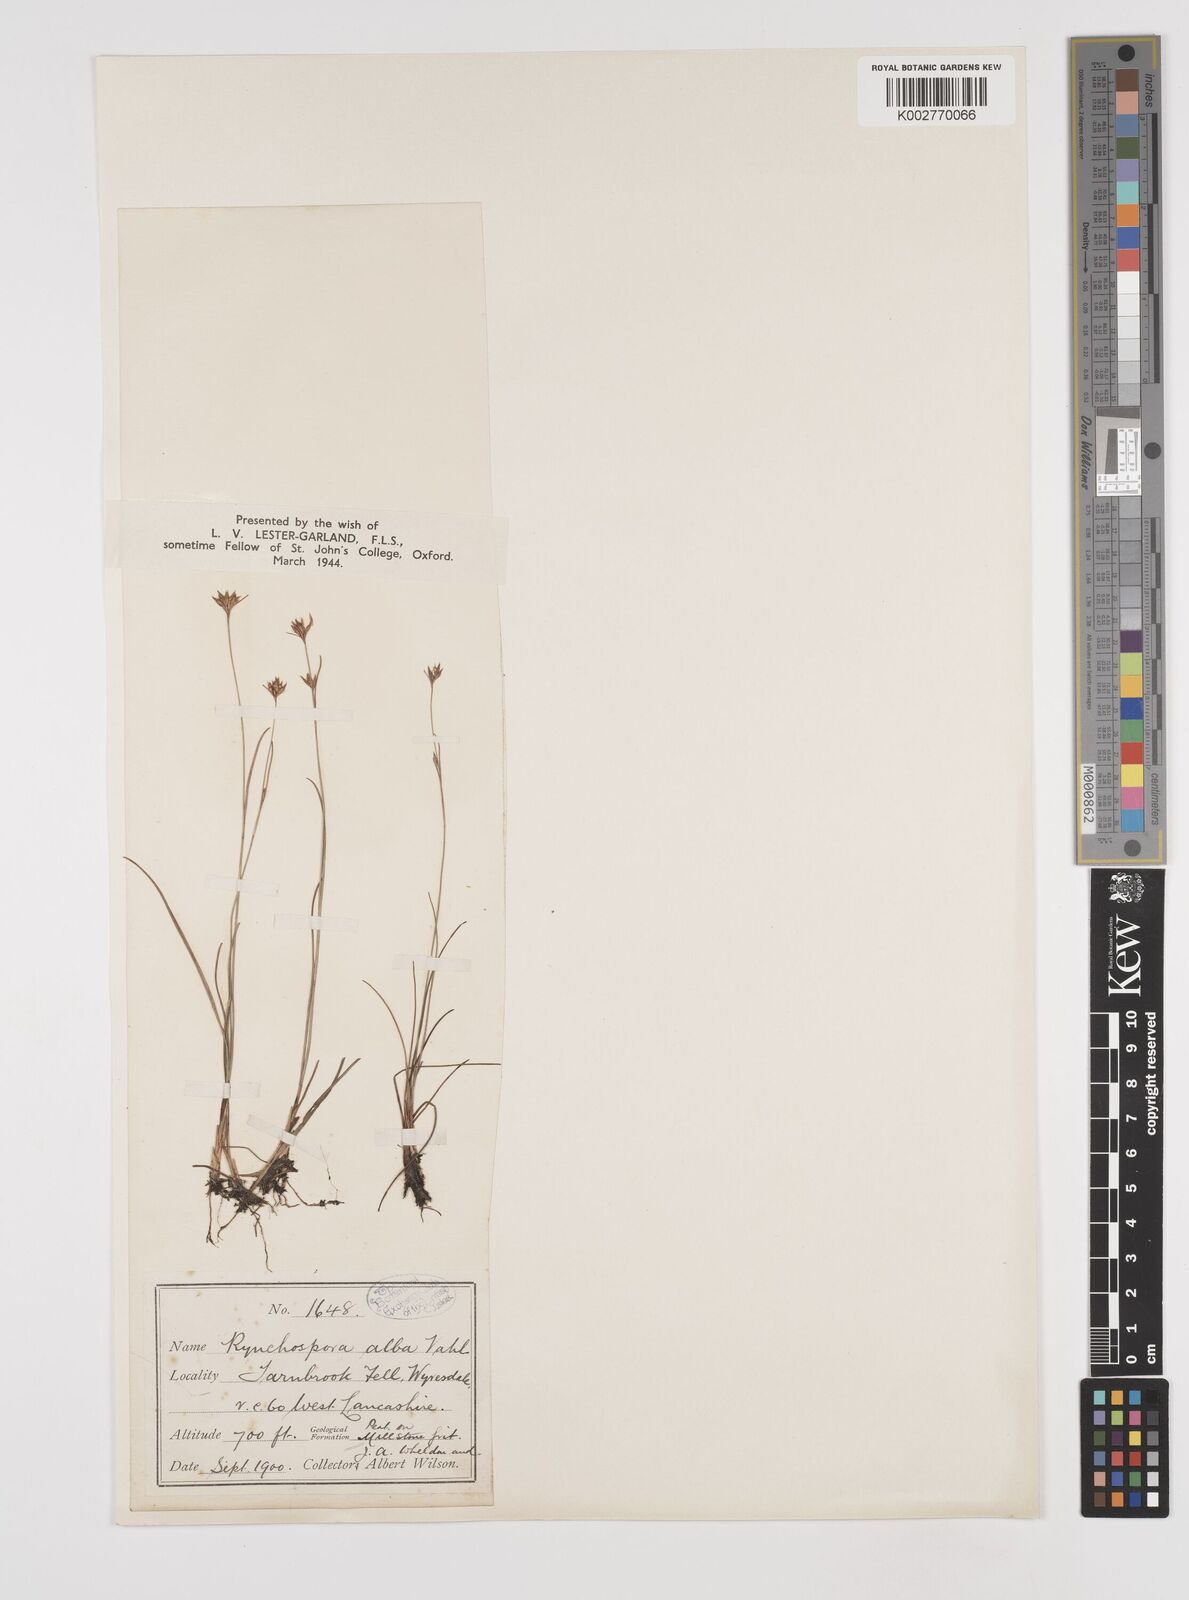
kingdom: Plantae
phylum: Tracheophyta
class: Liliopsida
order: Poales
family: Cyperaceae
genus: Rhynchospora
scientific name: Rhynchospora alba
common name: White beak-sedge
